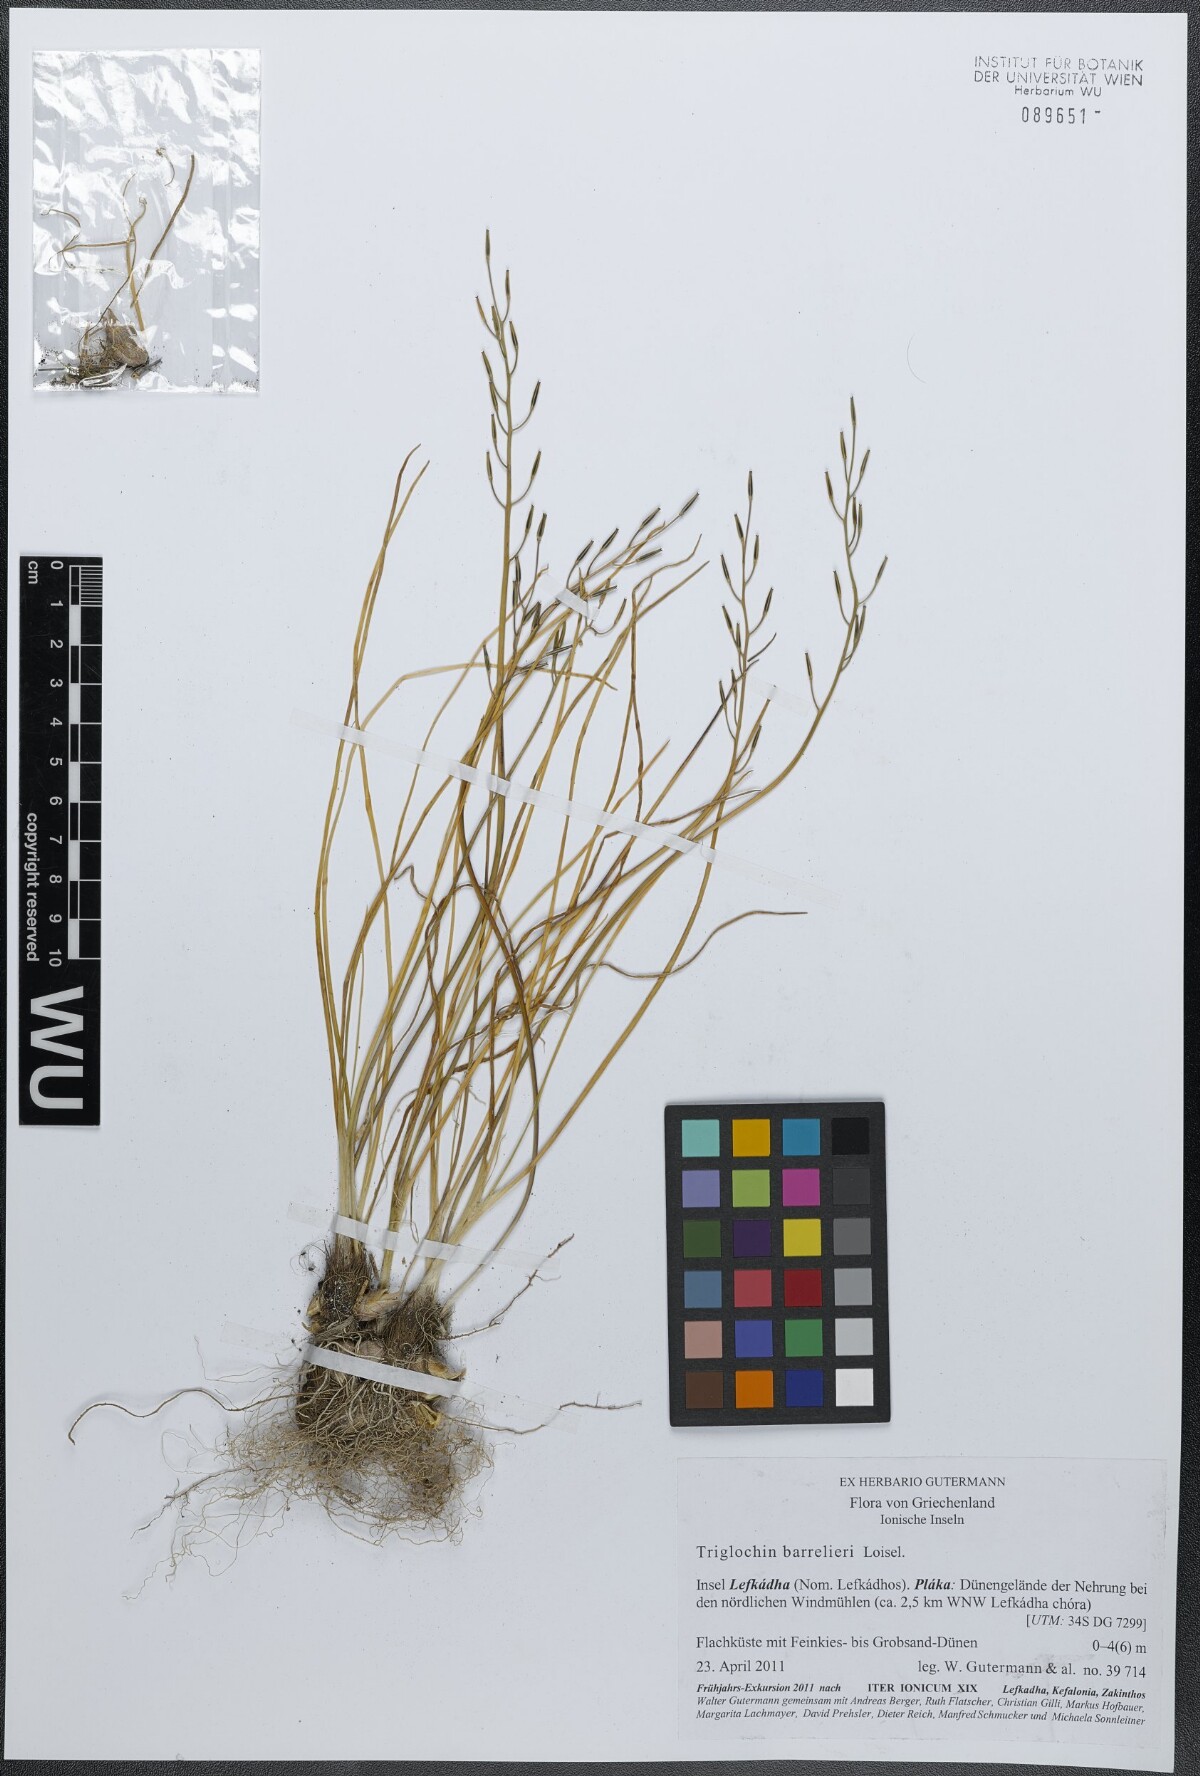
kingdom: Plantae
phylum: Tracheophyta
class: Liliopsida
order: Alismatales
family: Juncaginaceae
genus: Triglochin
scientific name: Triglochin barrelieri
